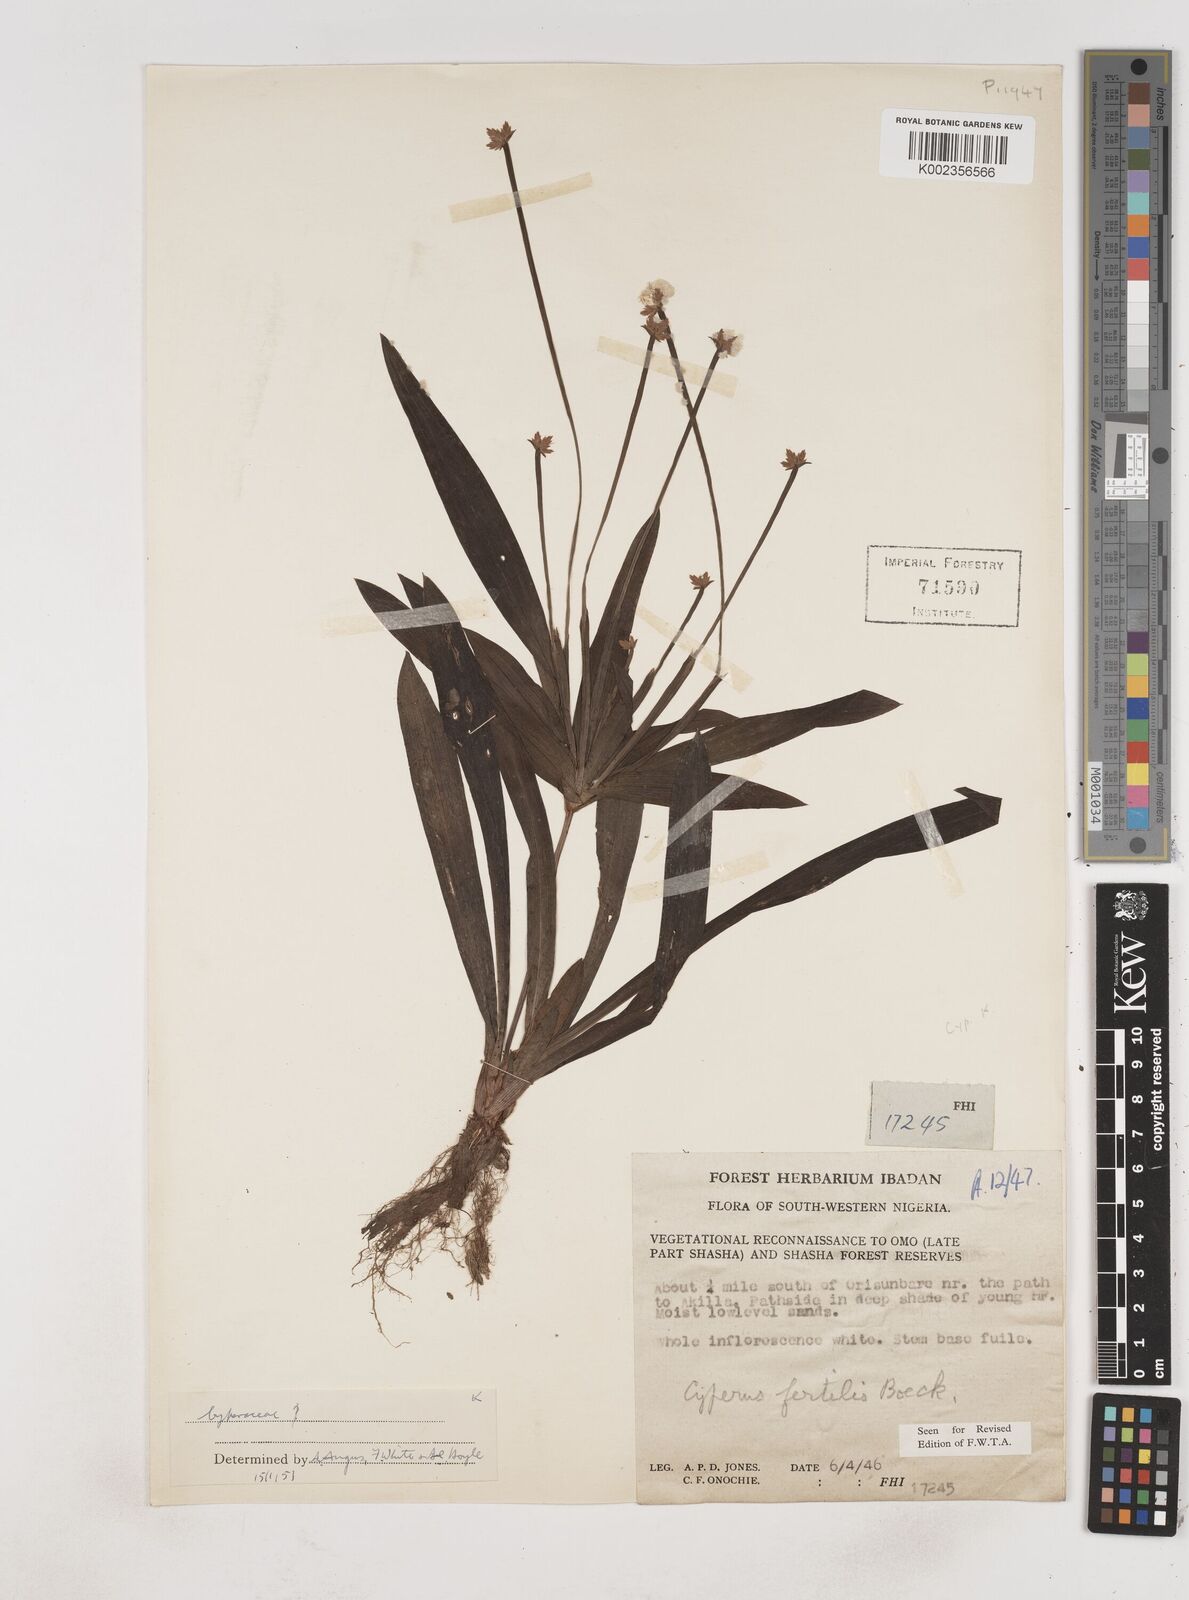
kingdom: Plantae
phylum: Tracheophyta
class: Liliopsida
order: Poales
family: Cyperaceae
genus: Cyperus
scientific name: Cyperus fertilis
